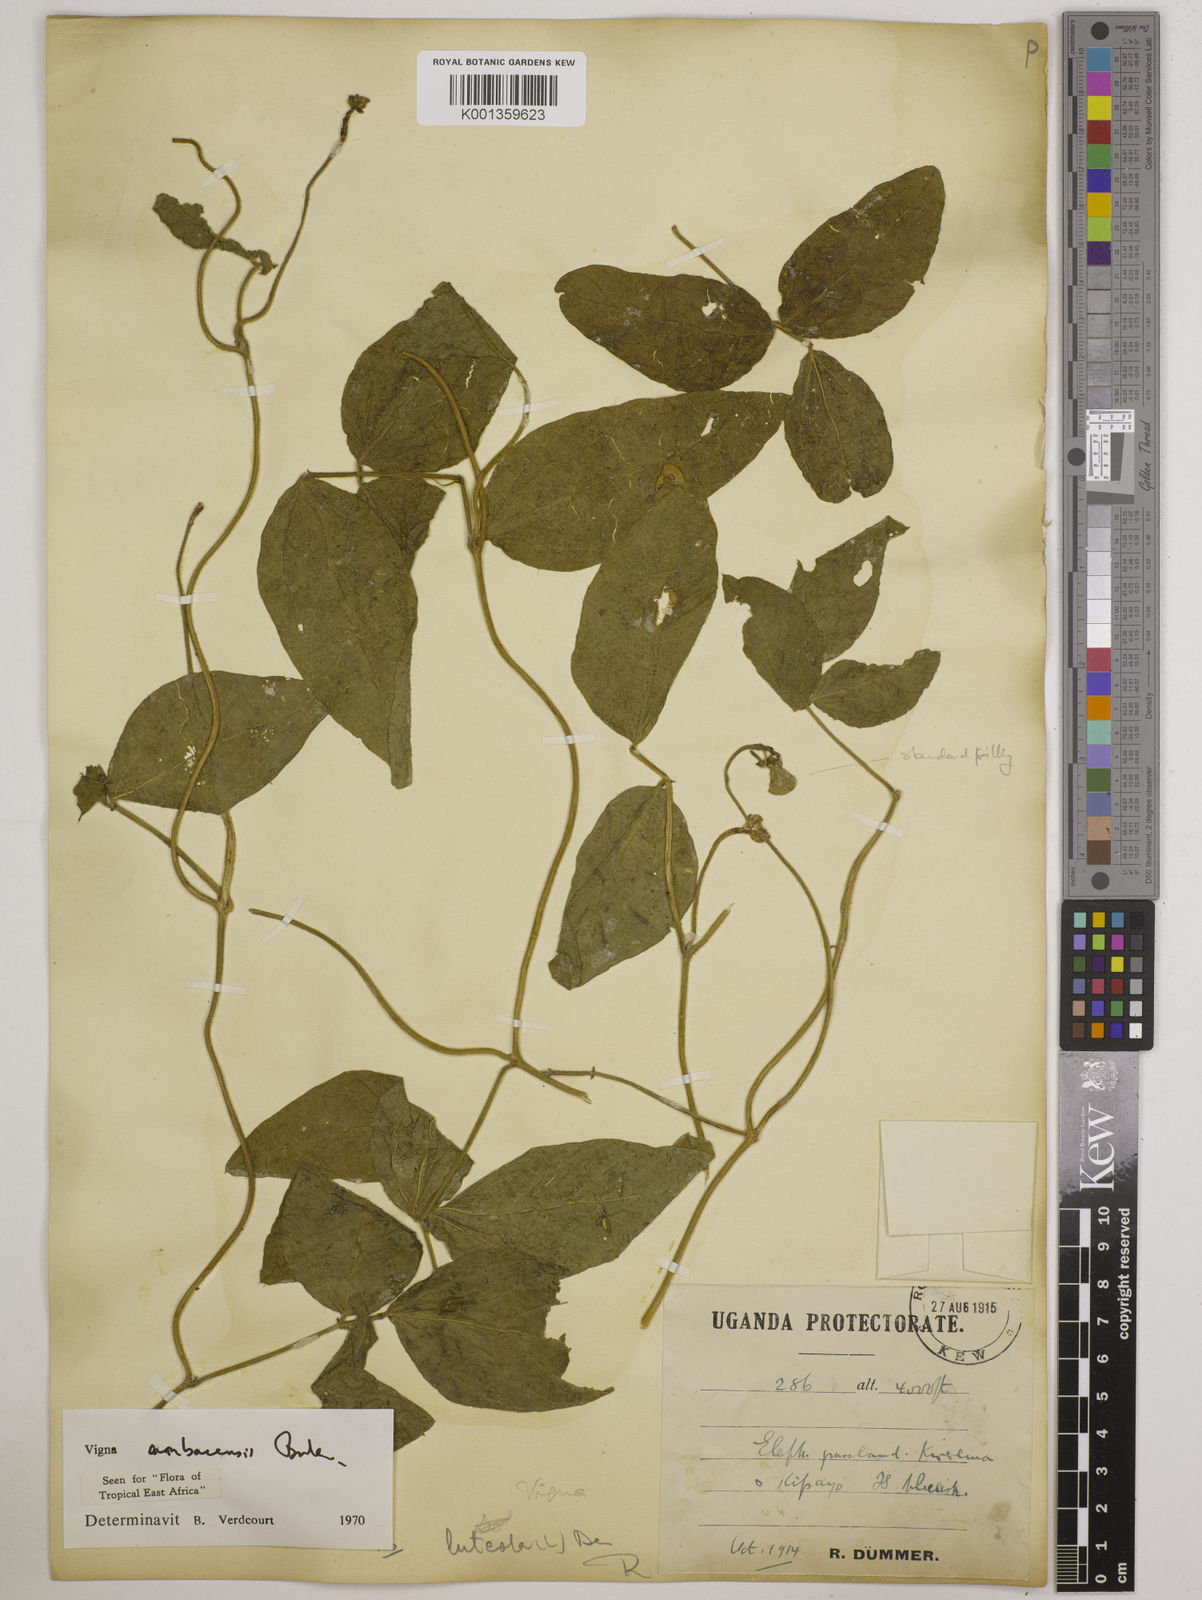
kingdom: Plantae
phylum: Tracheophyta
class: Magnoliopsida
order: Fabales
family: Fabaceae
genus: Vigna
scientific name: Vigna ambacensis
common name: Tsarkiyan zomo
